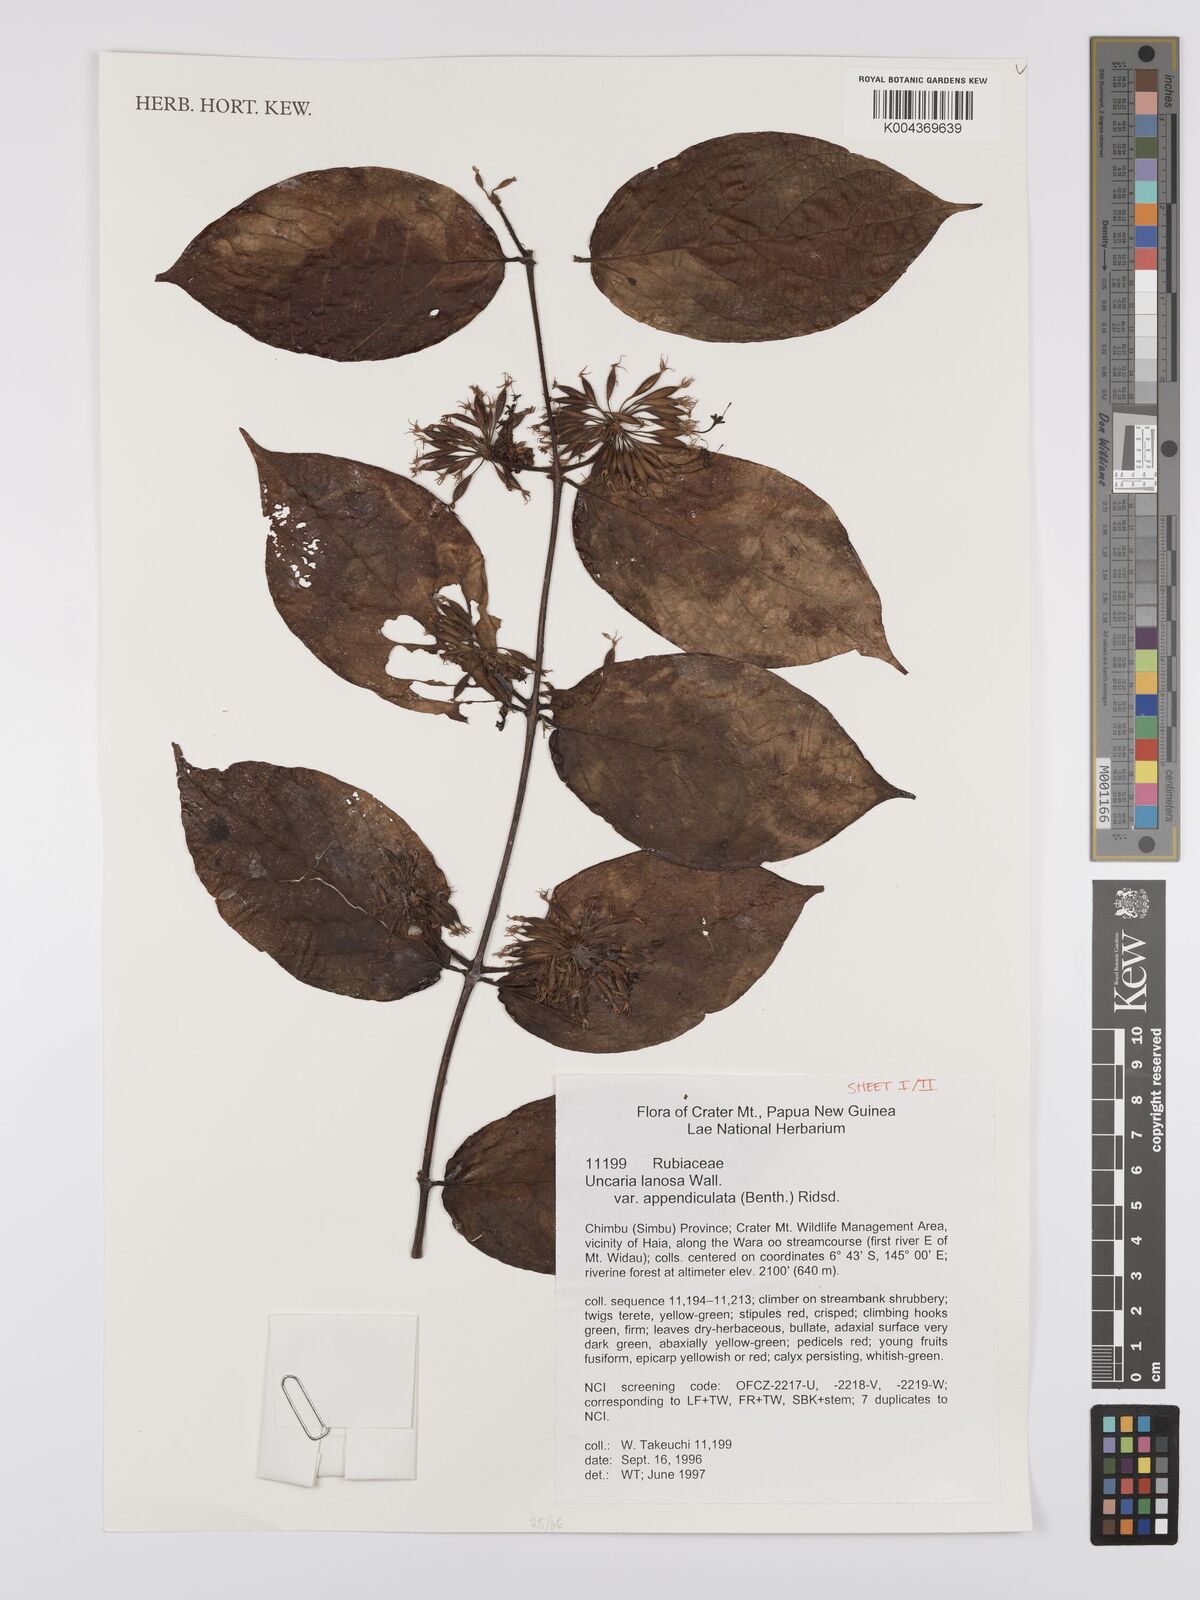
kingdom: Plantae
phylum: Tracheophyta
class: Magnoliopsida
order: Gentianales
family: Rubiaceae
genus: Uncaria
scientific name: Uncaria lanosa
